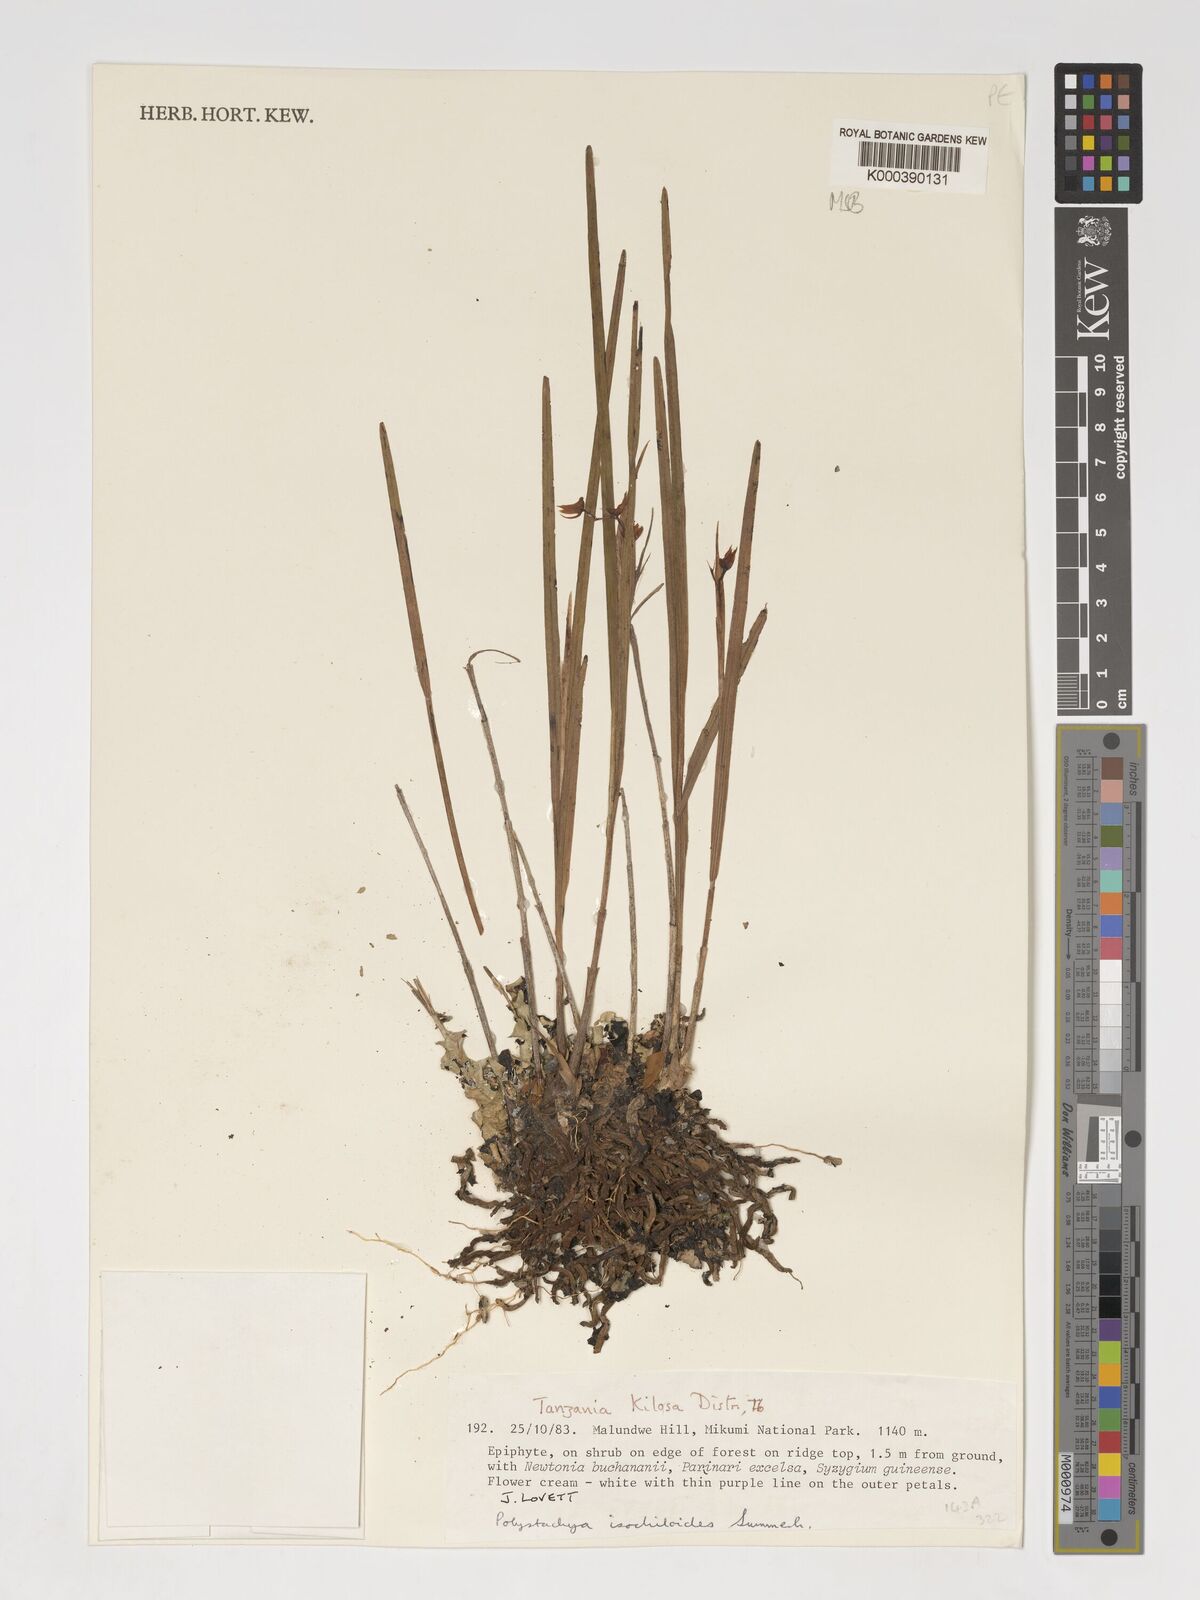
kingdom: Plantae
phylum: Tracheophyta
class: Liliopsida
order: Asparagales
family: Orchidaceae
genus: Polystachya
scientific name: Polystachya isochiloides
